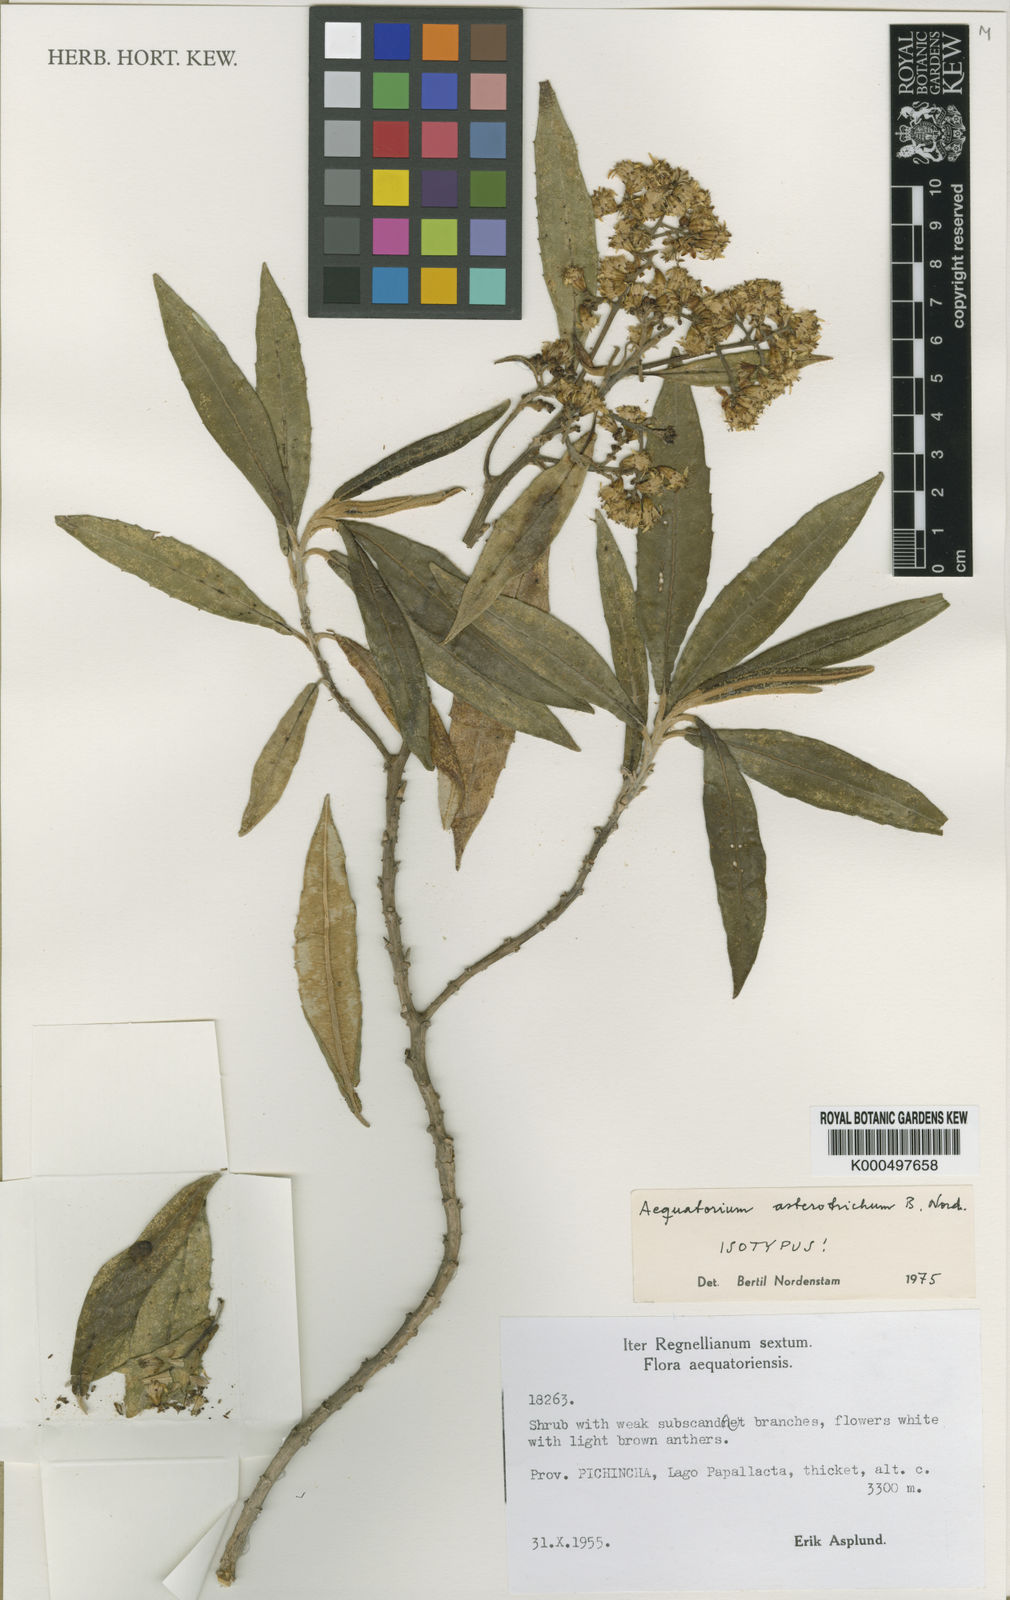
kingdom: Plantae
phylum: Tracheophyta
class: Magnoliopsida
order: Asterales
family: Asteraceae
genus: Aequatorium
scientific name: Aequatorium asterotrichum
